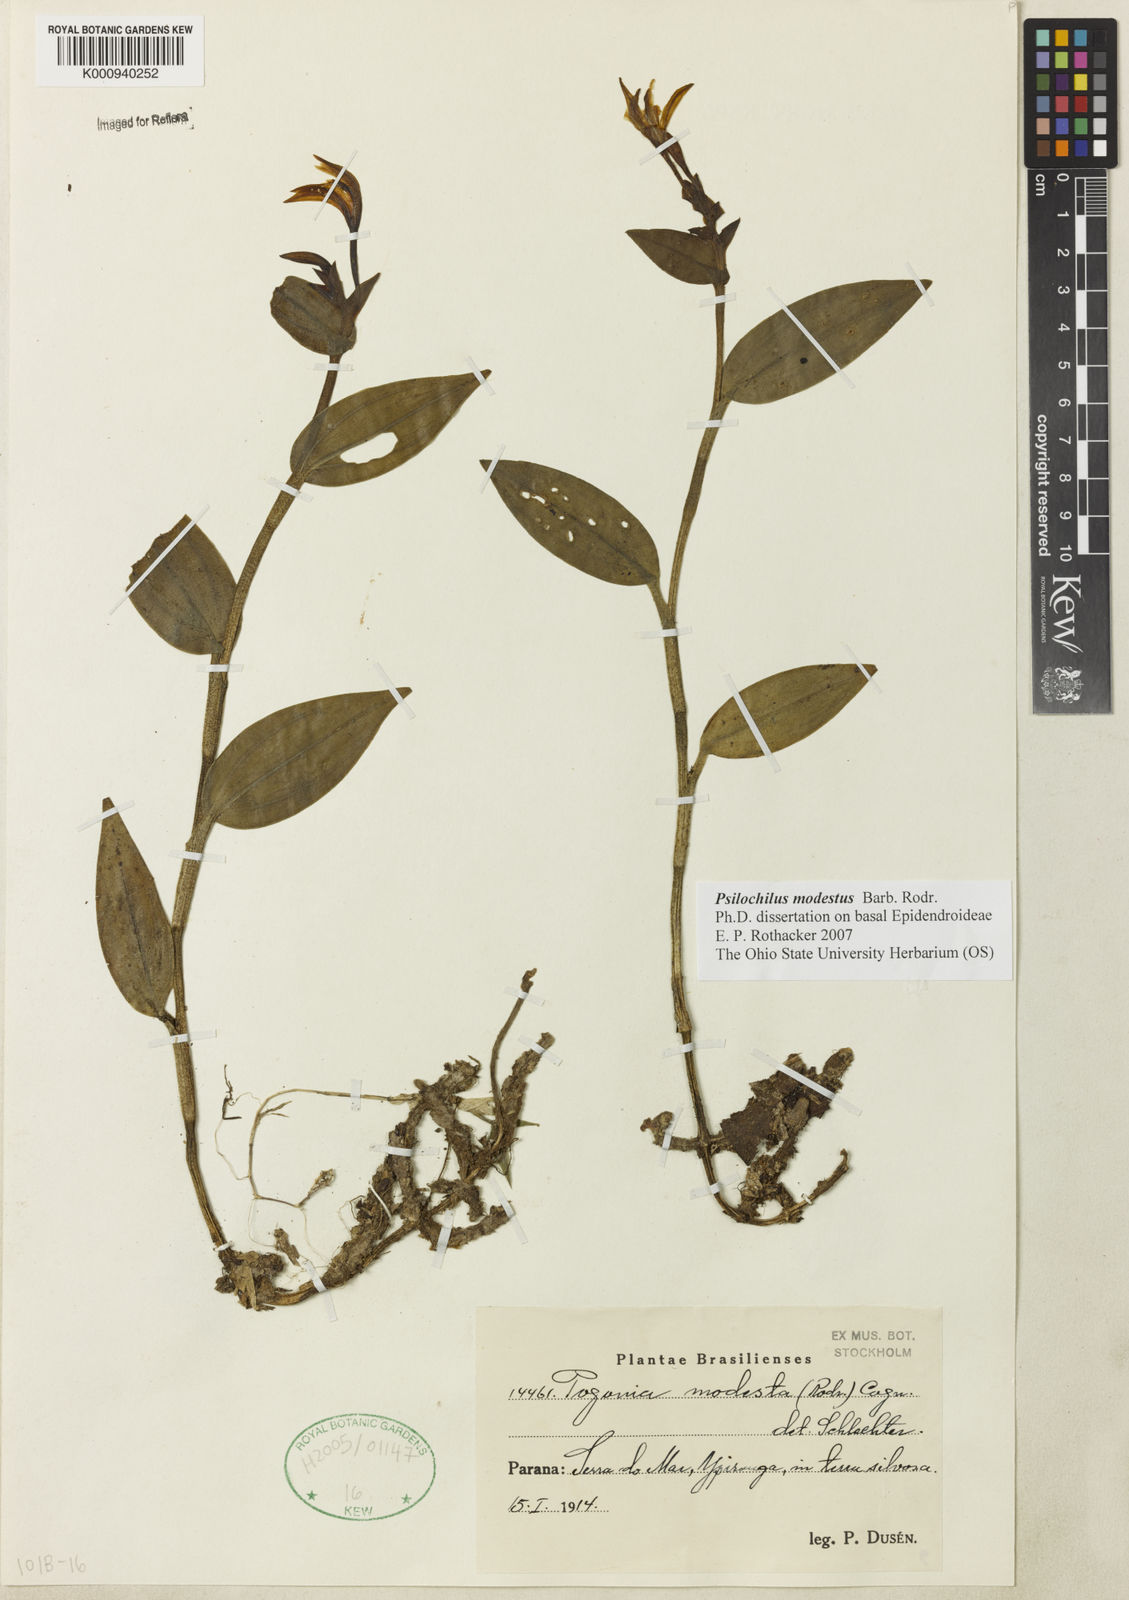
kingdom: Plantae
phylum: Tracheophyta
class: Liliopsida
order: Asparagales
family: Orchidaceae
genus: Psilochilus
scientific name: Psilochilus modestus
